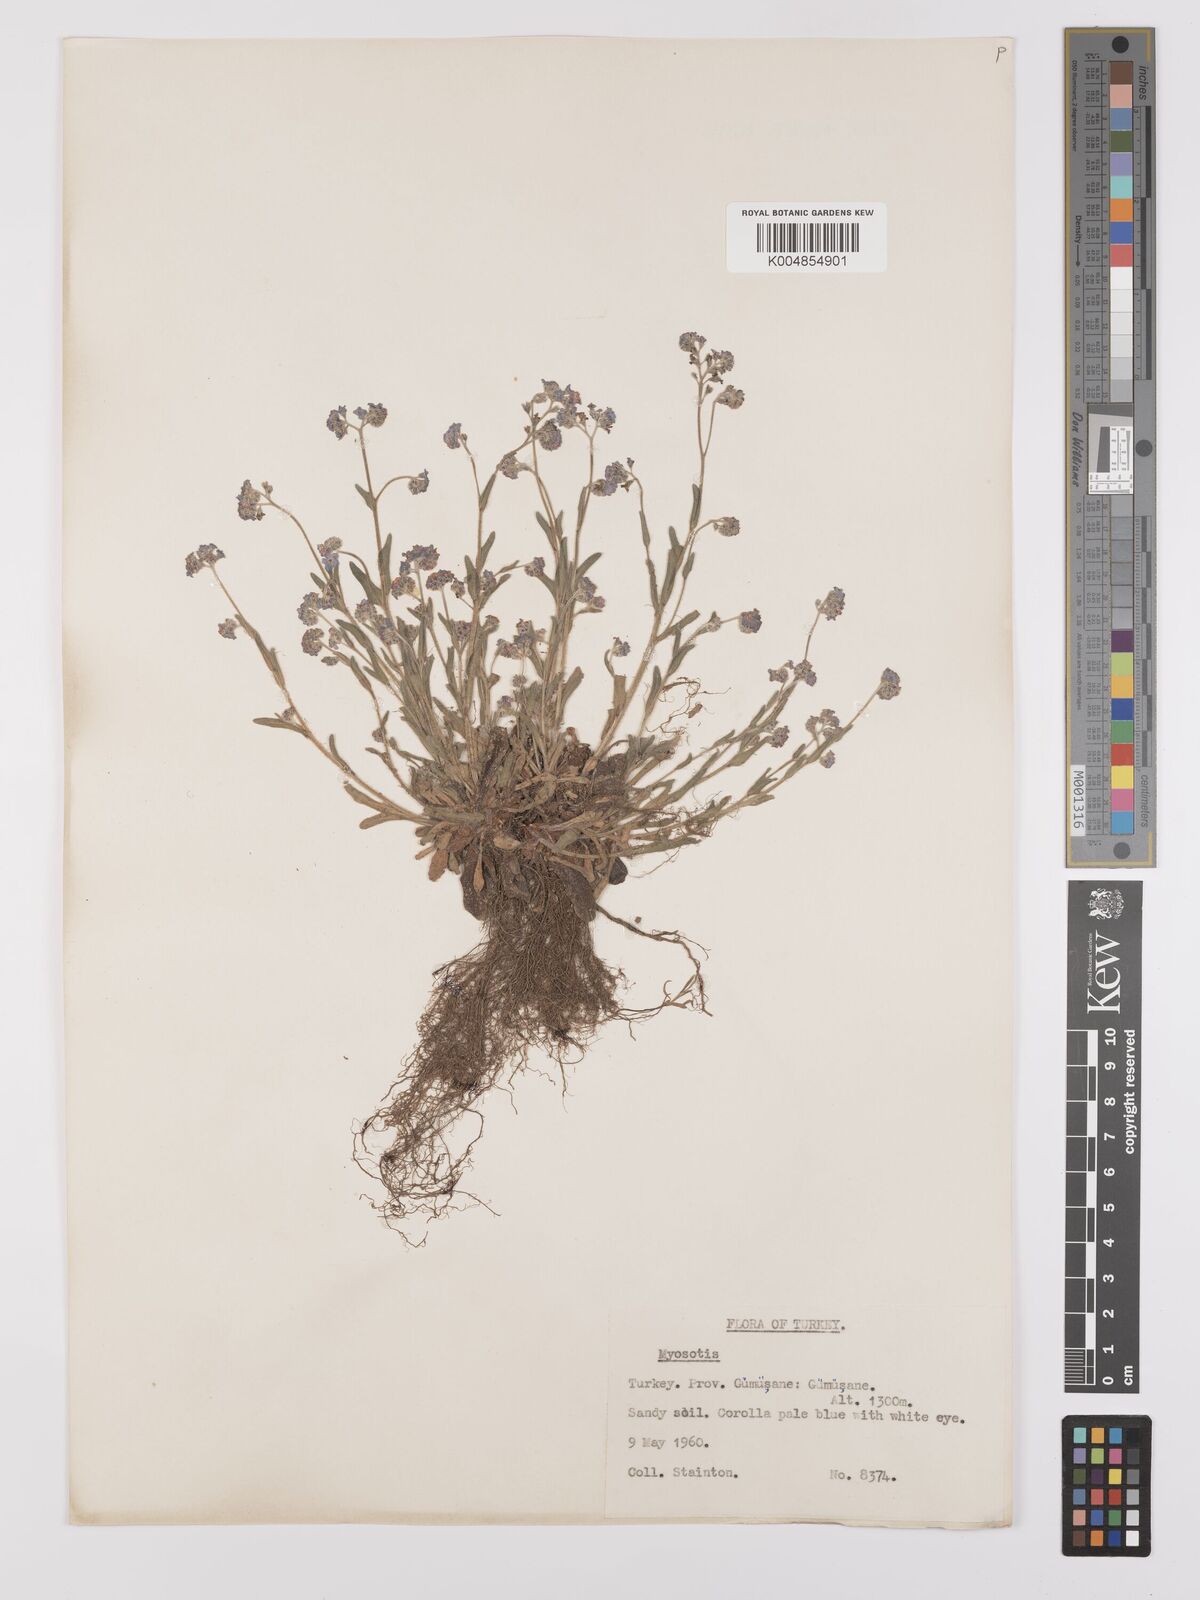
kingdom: Plantae
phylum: Tracheophyta
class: Magnoliopsida
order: Boraginales
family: Boraginaceae
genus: Myosotis
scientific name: Myosotis
